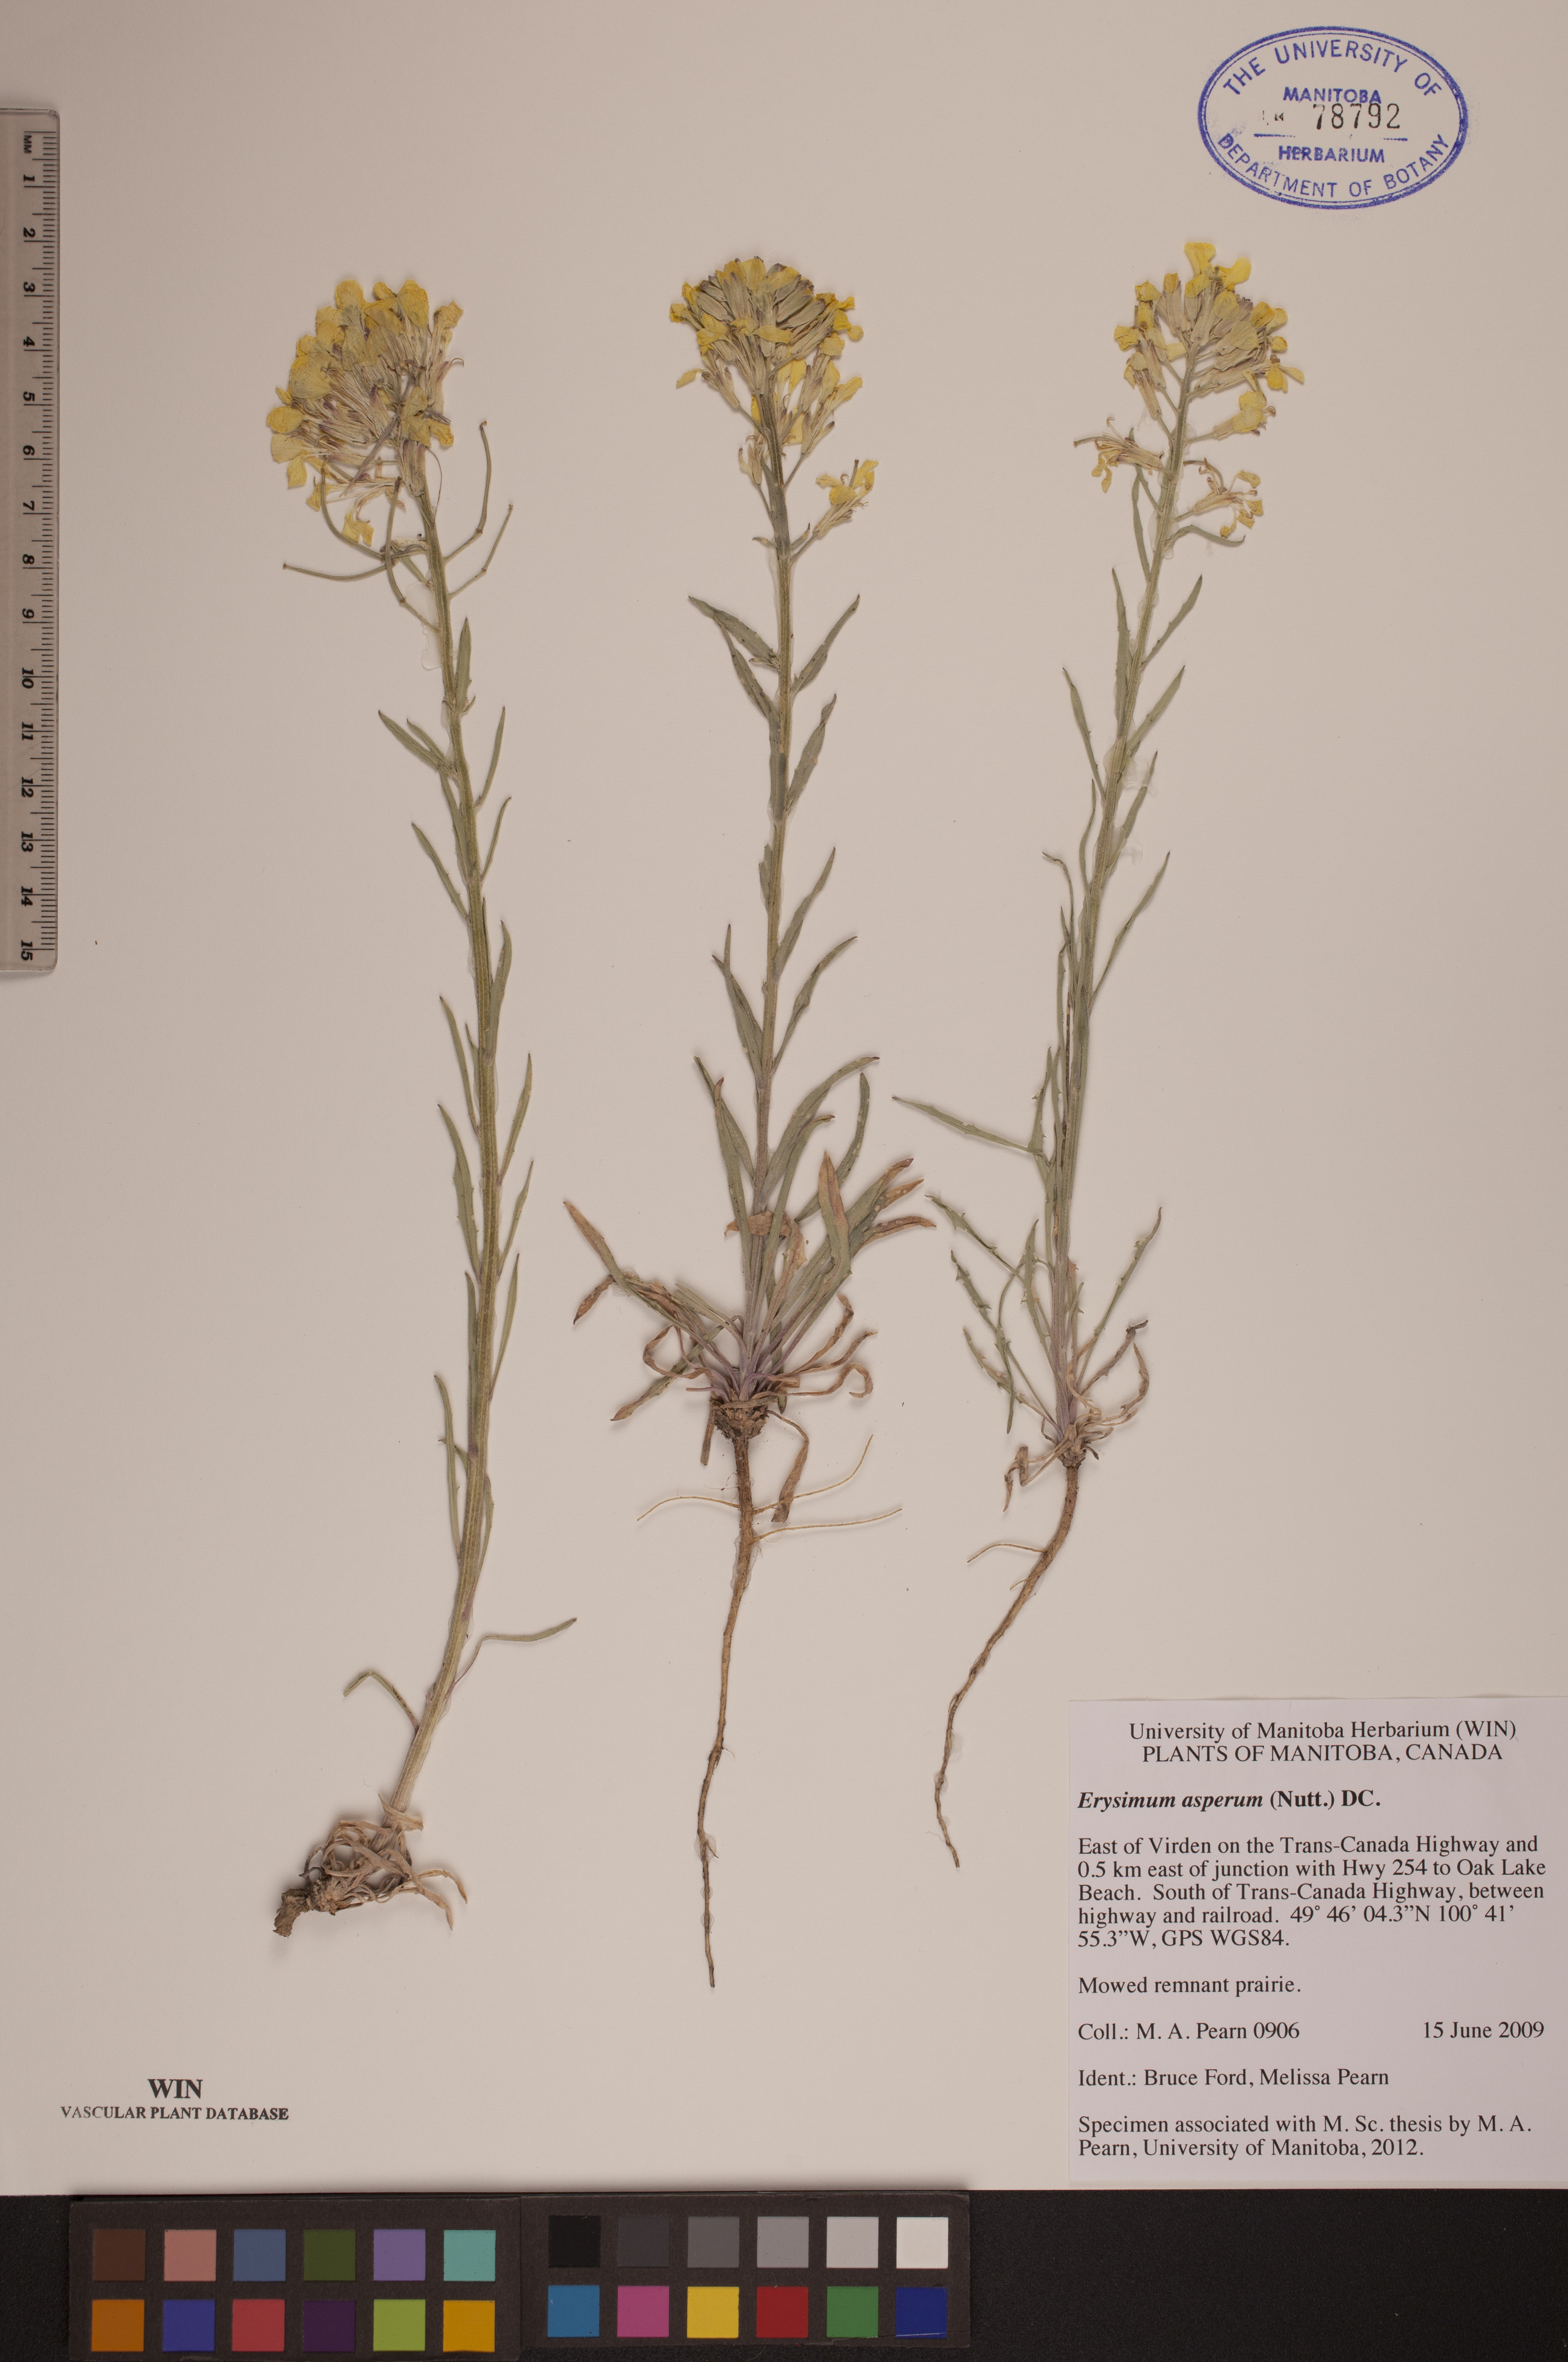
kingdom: Plantae
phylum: Tracheophyta
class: Magnoliopsida
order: Brassicales
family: Brassicaceae
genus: Erysimum
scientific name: Erysimum asperum
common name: Western wallflower
